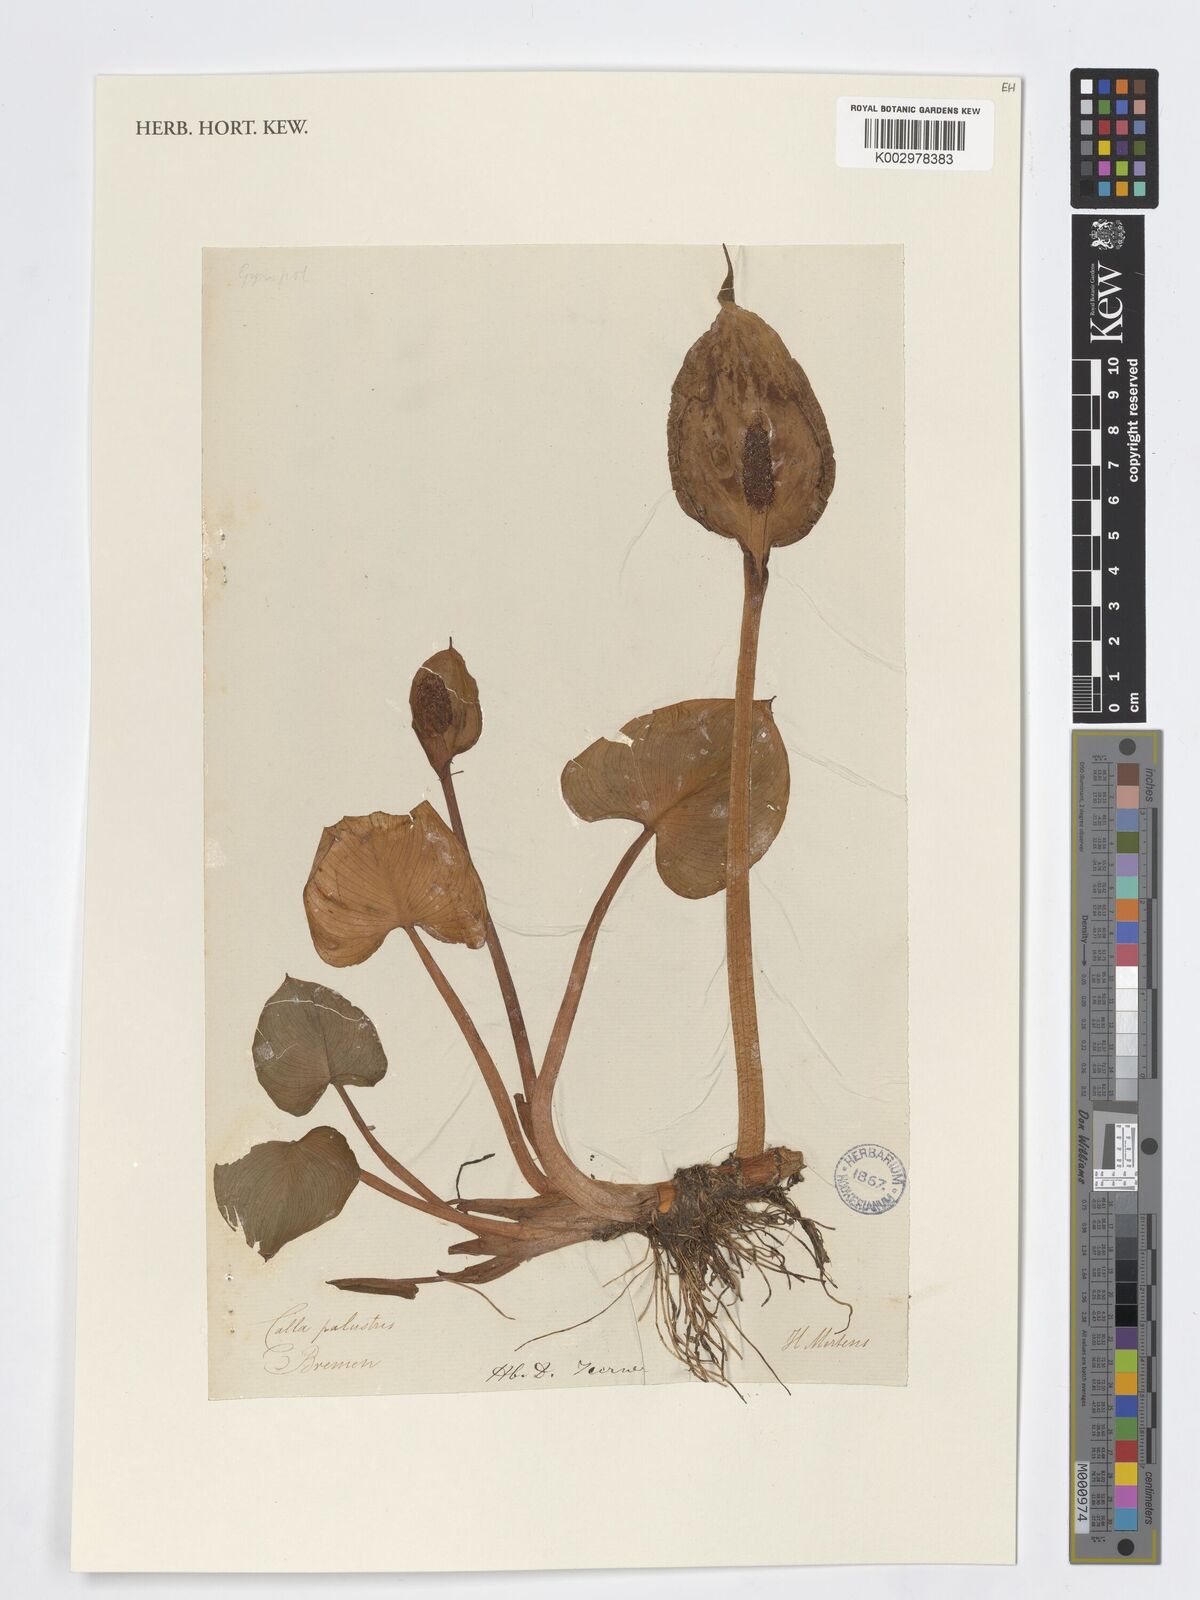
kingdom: Plantae
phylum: Tracheophyta
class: Liliopsida
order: Alismatales
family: Araceae
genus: Calla
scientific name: Calla palustris
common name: Bog arum
